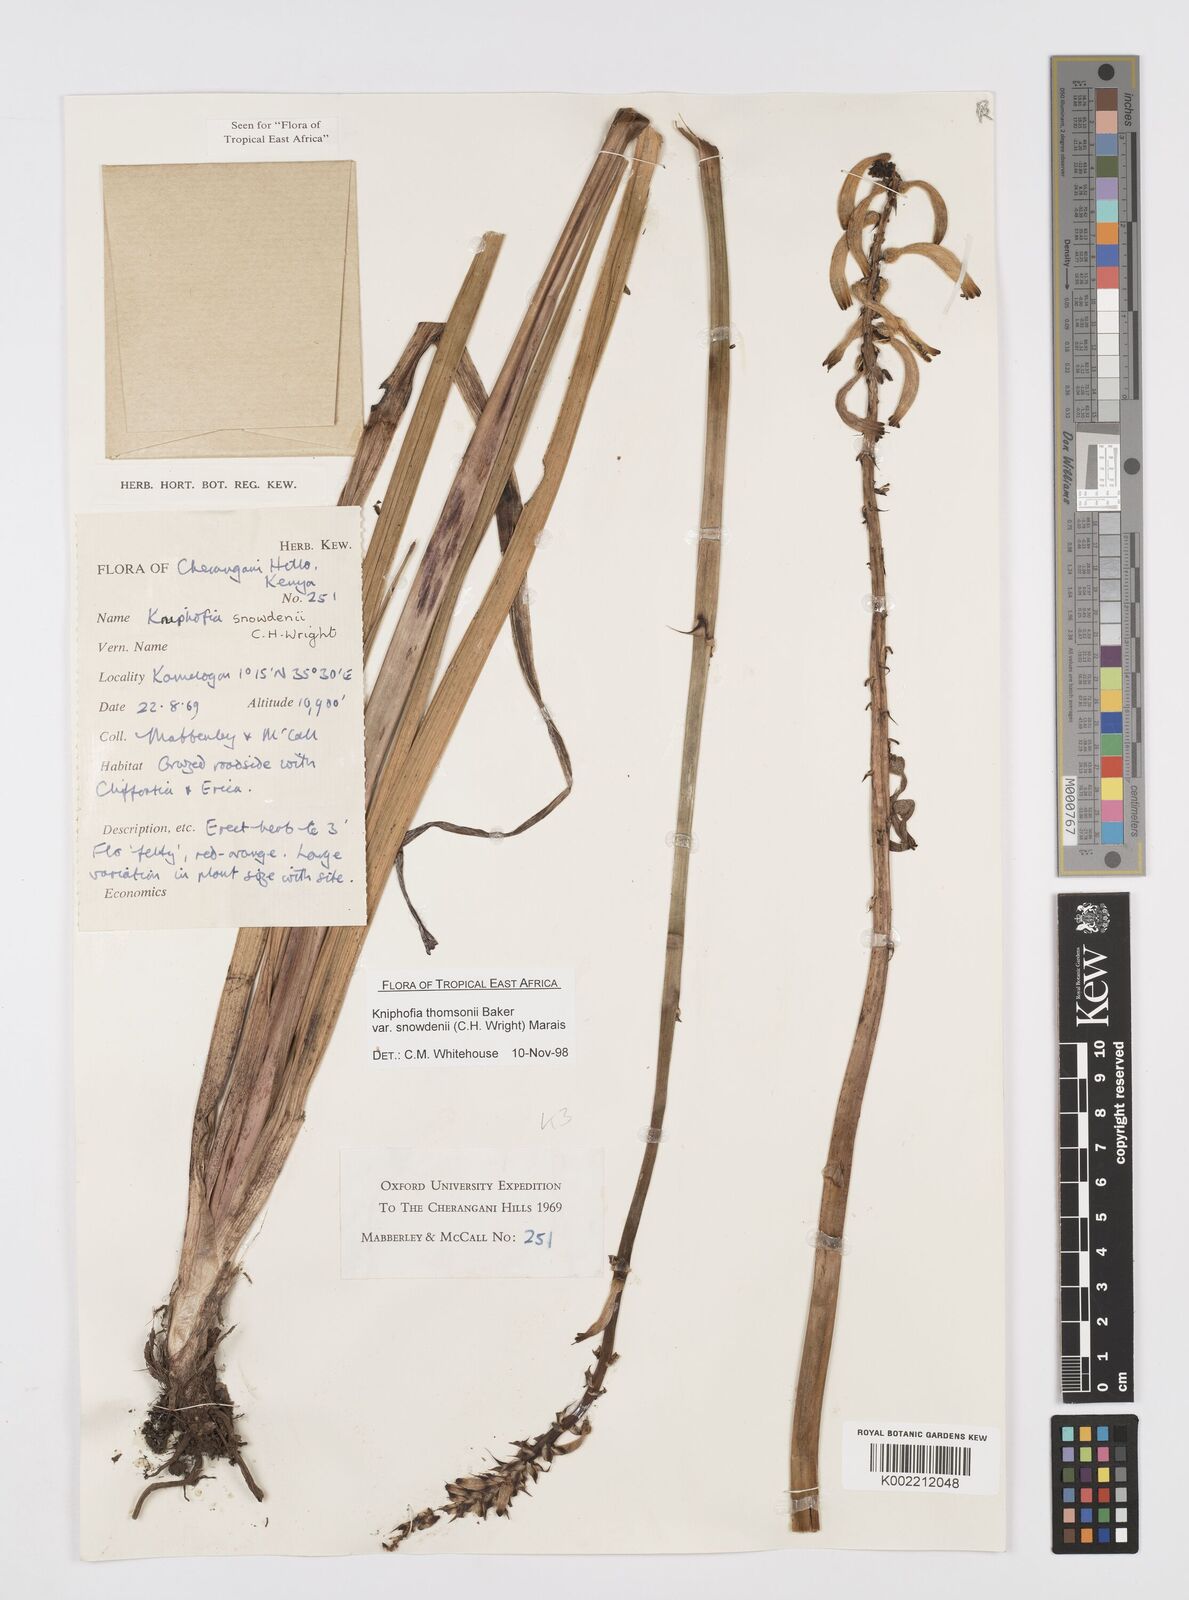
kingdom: Plantae
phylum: Tracheophyta
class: Liliopsida
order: Asparagales
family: Asphodelaceae
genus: Kniphofia
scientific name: Kniphofia
